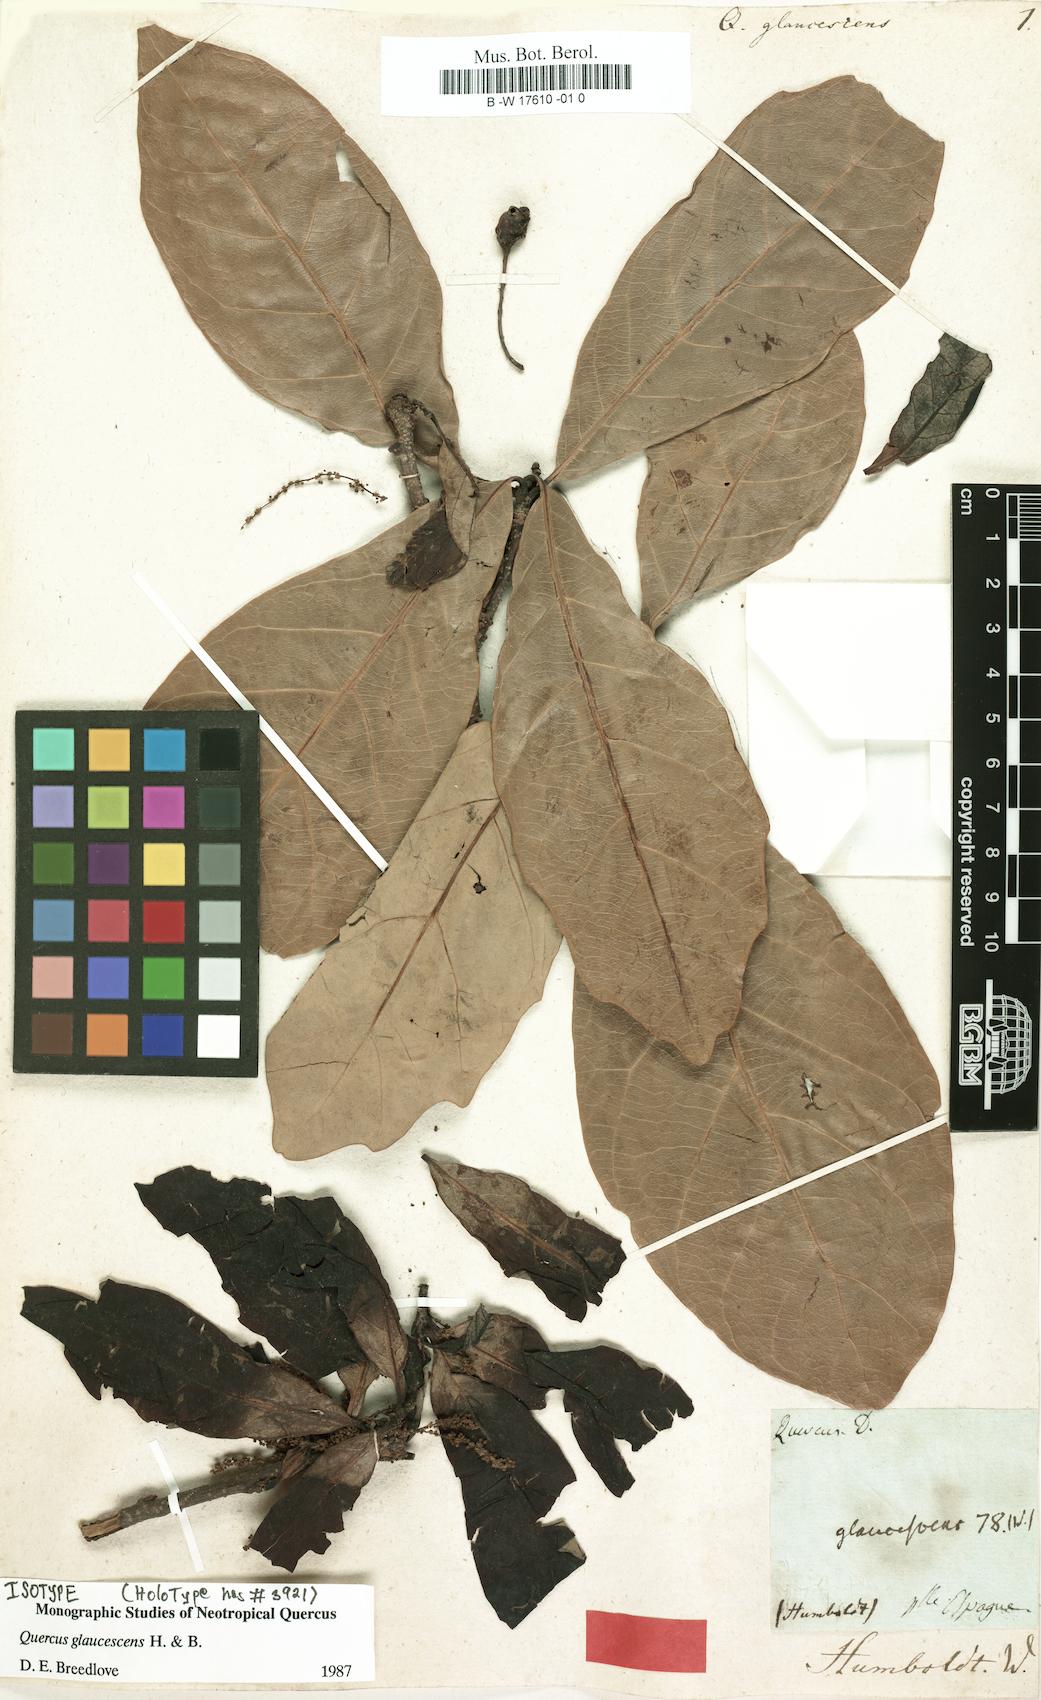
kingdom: Plantae
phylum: Tracheophyta
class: Magnoliopsida
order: Fagales
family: Fagaceae
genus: Quercus
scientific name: Quercus glaucescens
